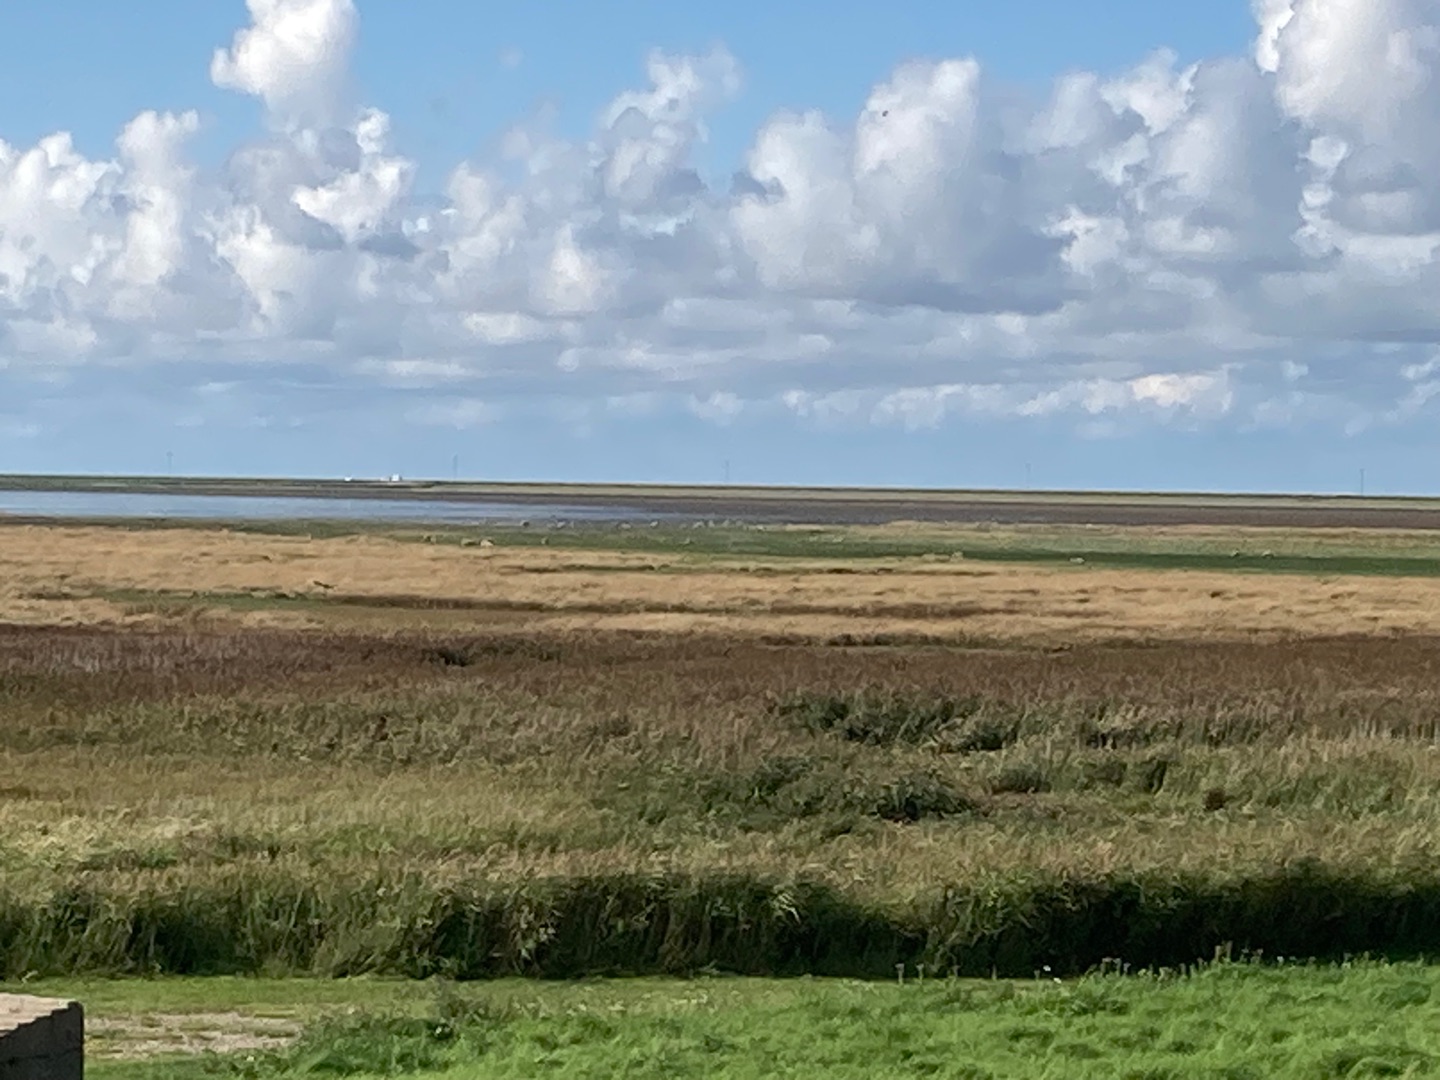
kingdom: Animalia
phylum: Chordata
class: Aves
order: Accipitriformes
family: Accipitridae
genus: Circus
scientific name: Circus aeruginosus
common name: Rørhøg
